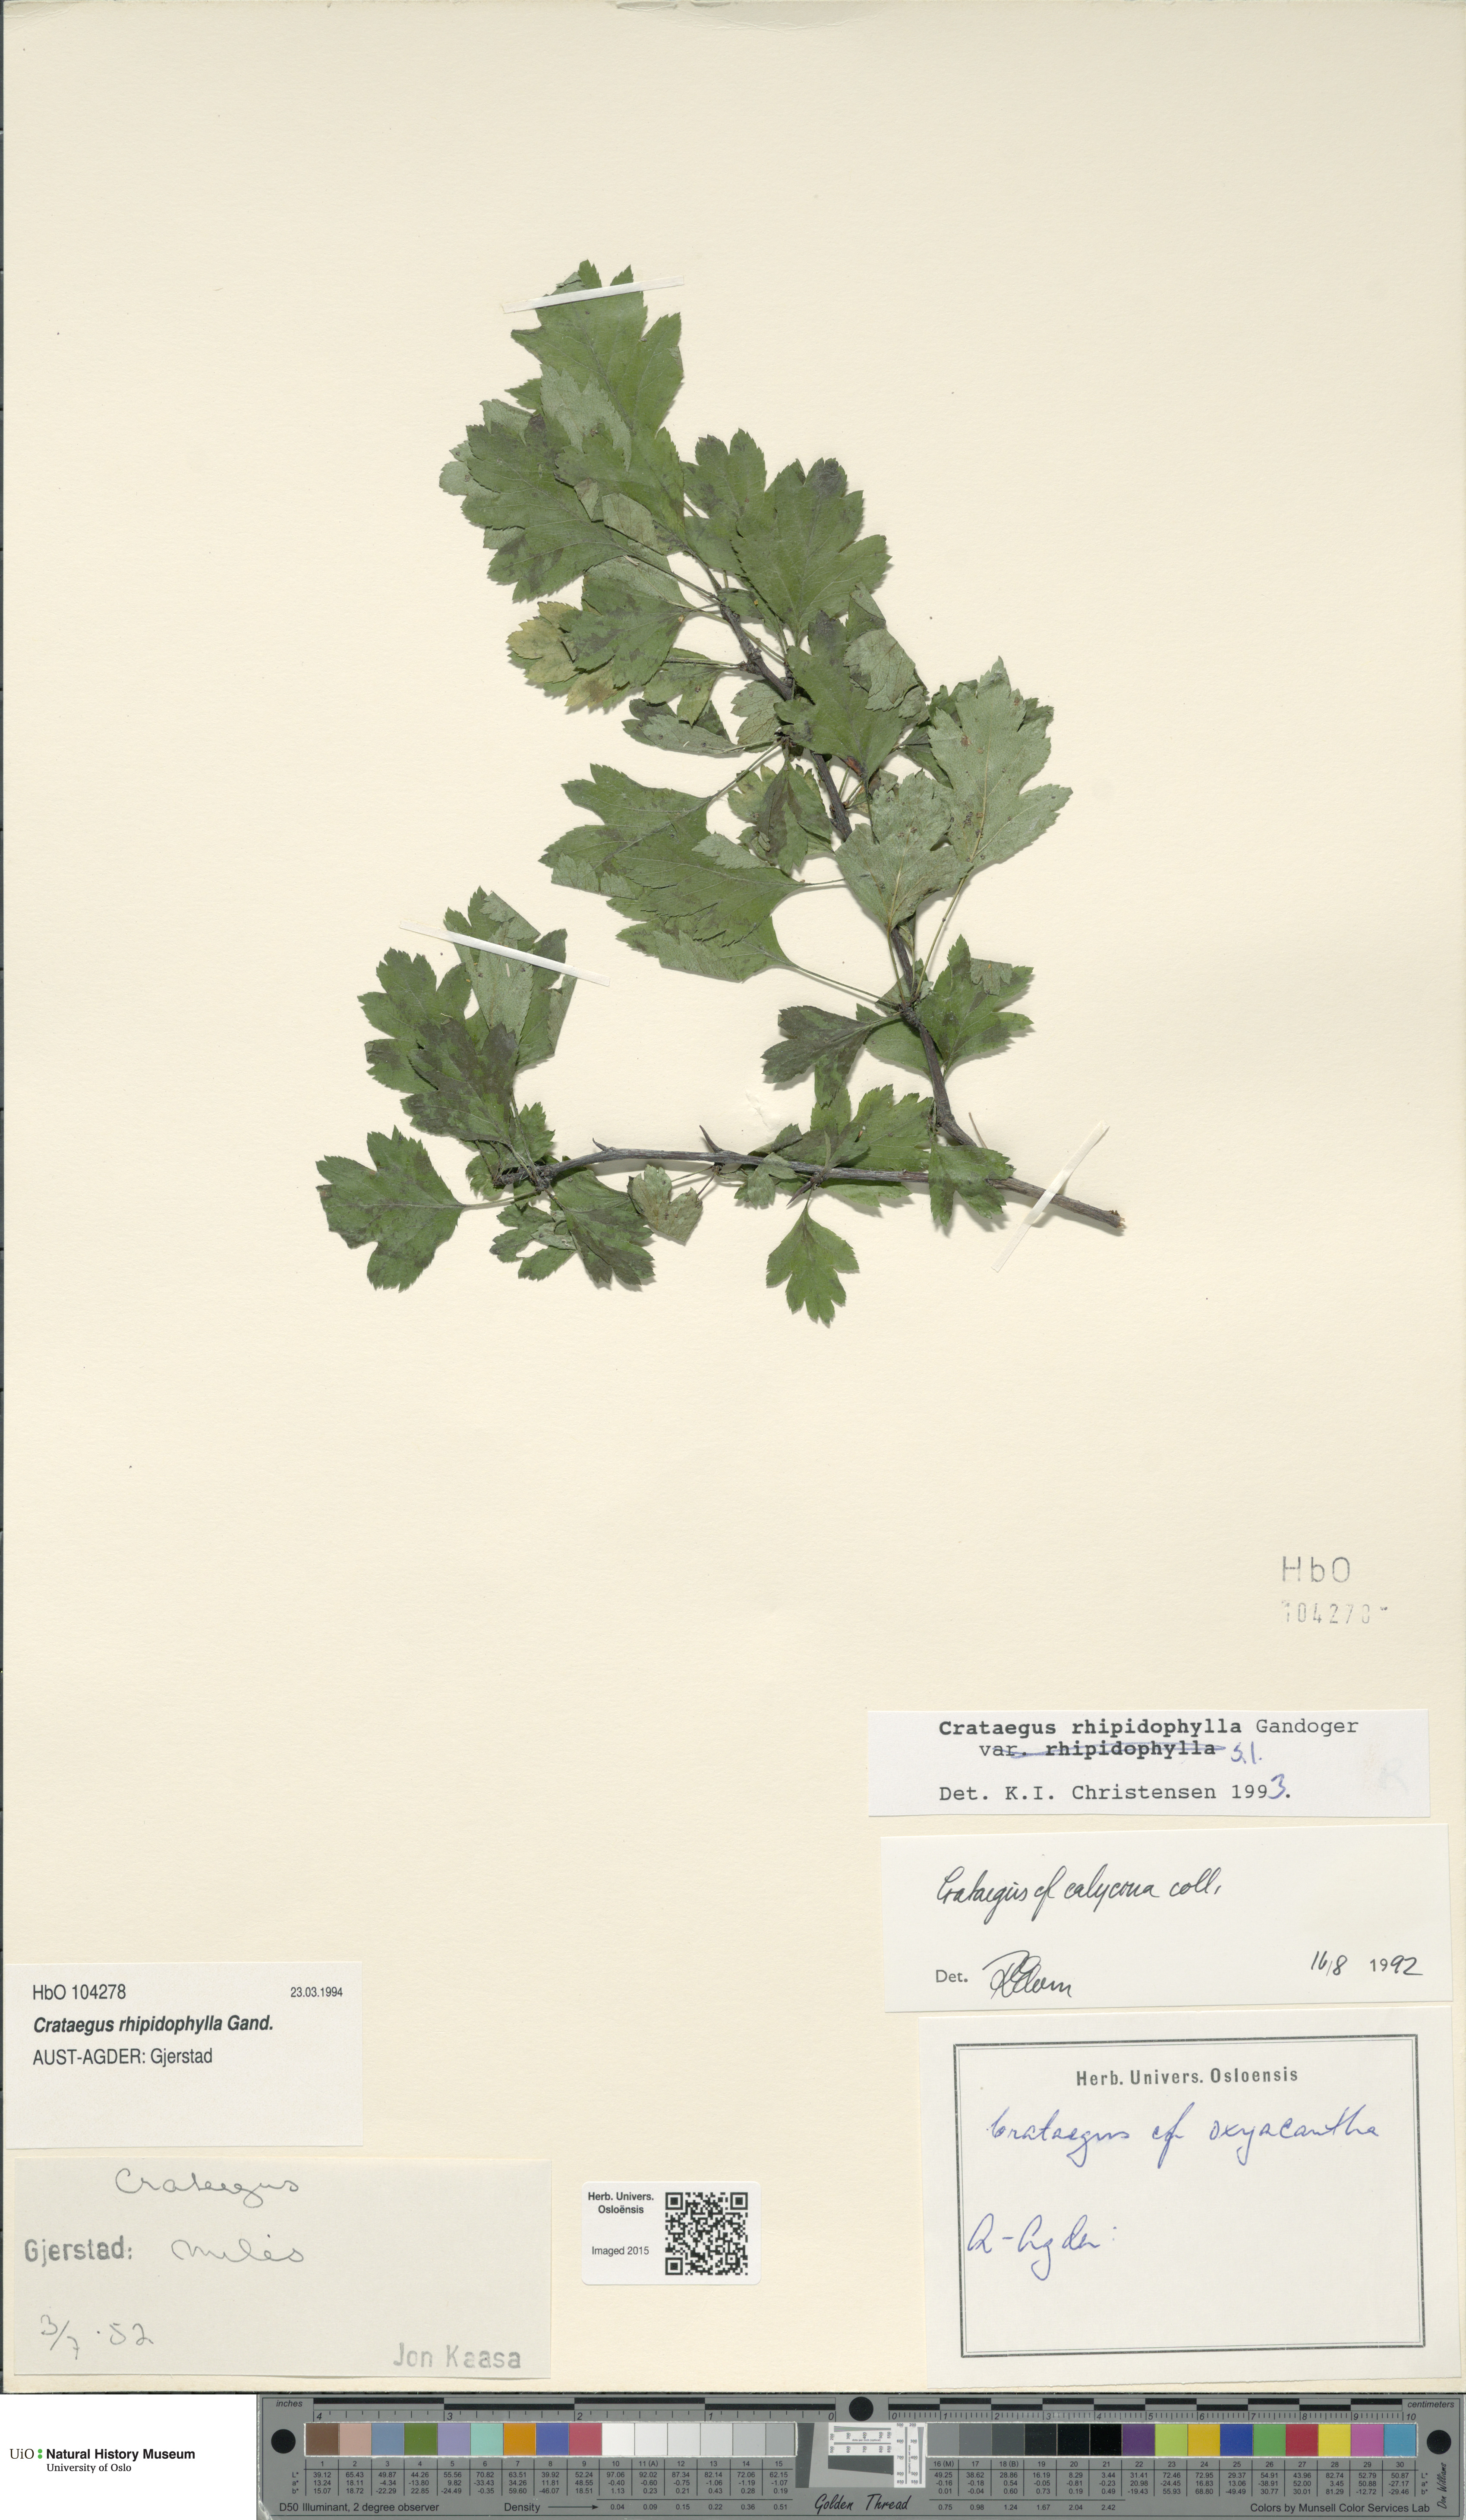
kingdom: Plantae
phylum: Tracheophyta
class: Magnoliopsida
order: Rosales
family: Rosaceae
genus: Crataegus
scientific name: Crataegus rhipidophylla
